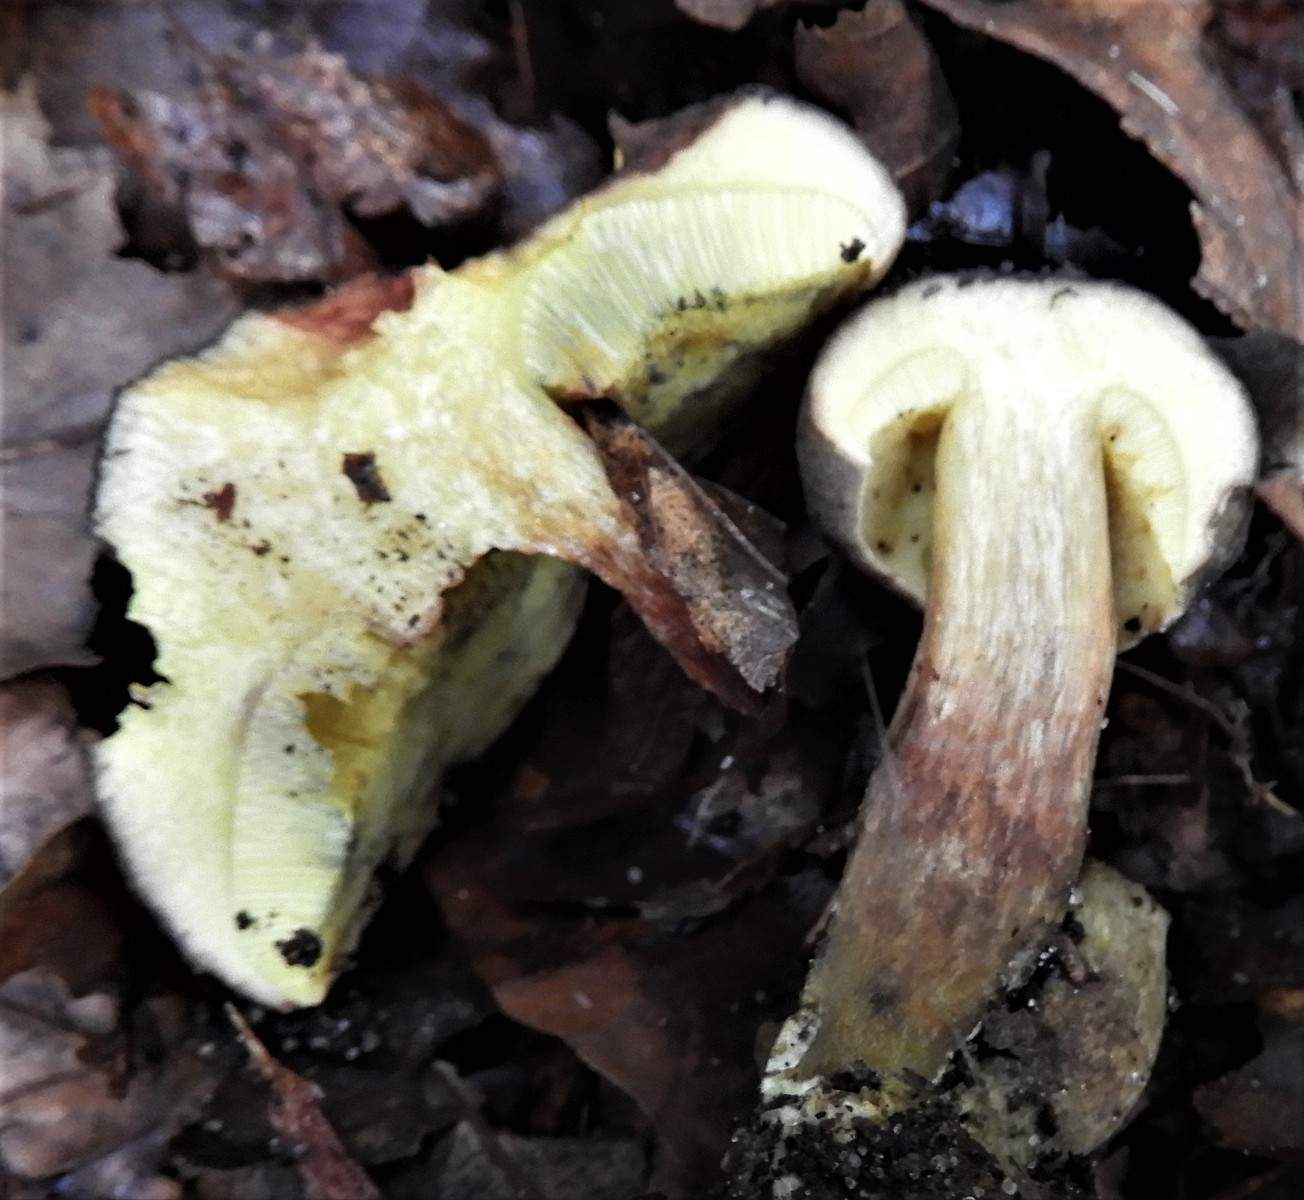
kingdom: Fungi
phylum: Basidiomycota
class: Agaricomycetes
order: Boletales
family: Boletaceae
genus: Xerocomellus
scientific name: Xerocomellus
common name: dværgrørhat
